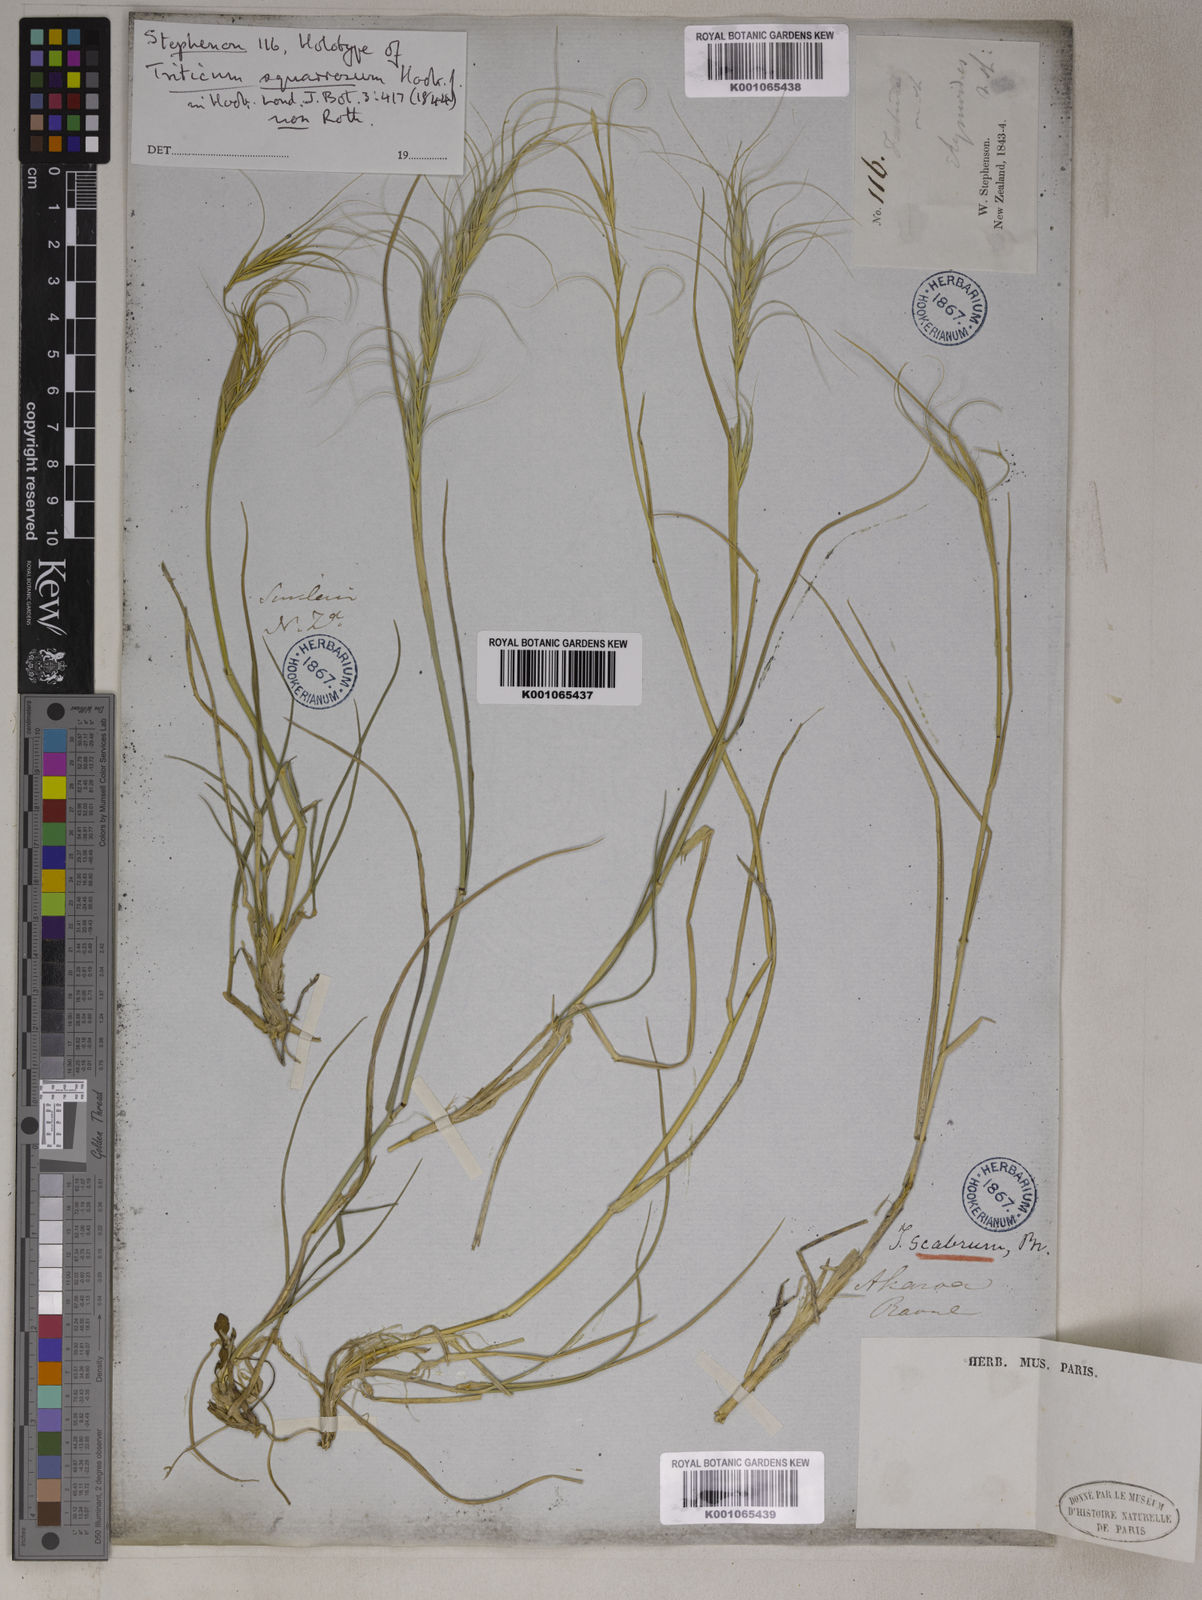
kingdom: Plantae
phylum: Tracheophyta
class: Liliopsida
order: Poales
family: Poaceae
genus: Elymus
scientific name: Elymus
